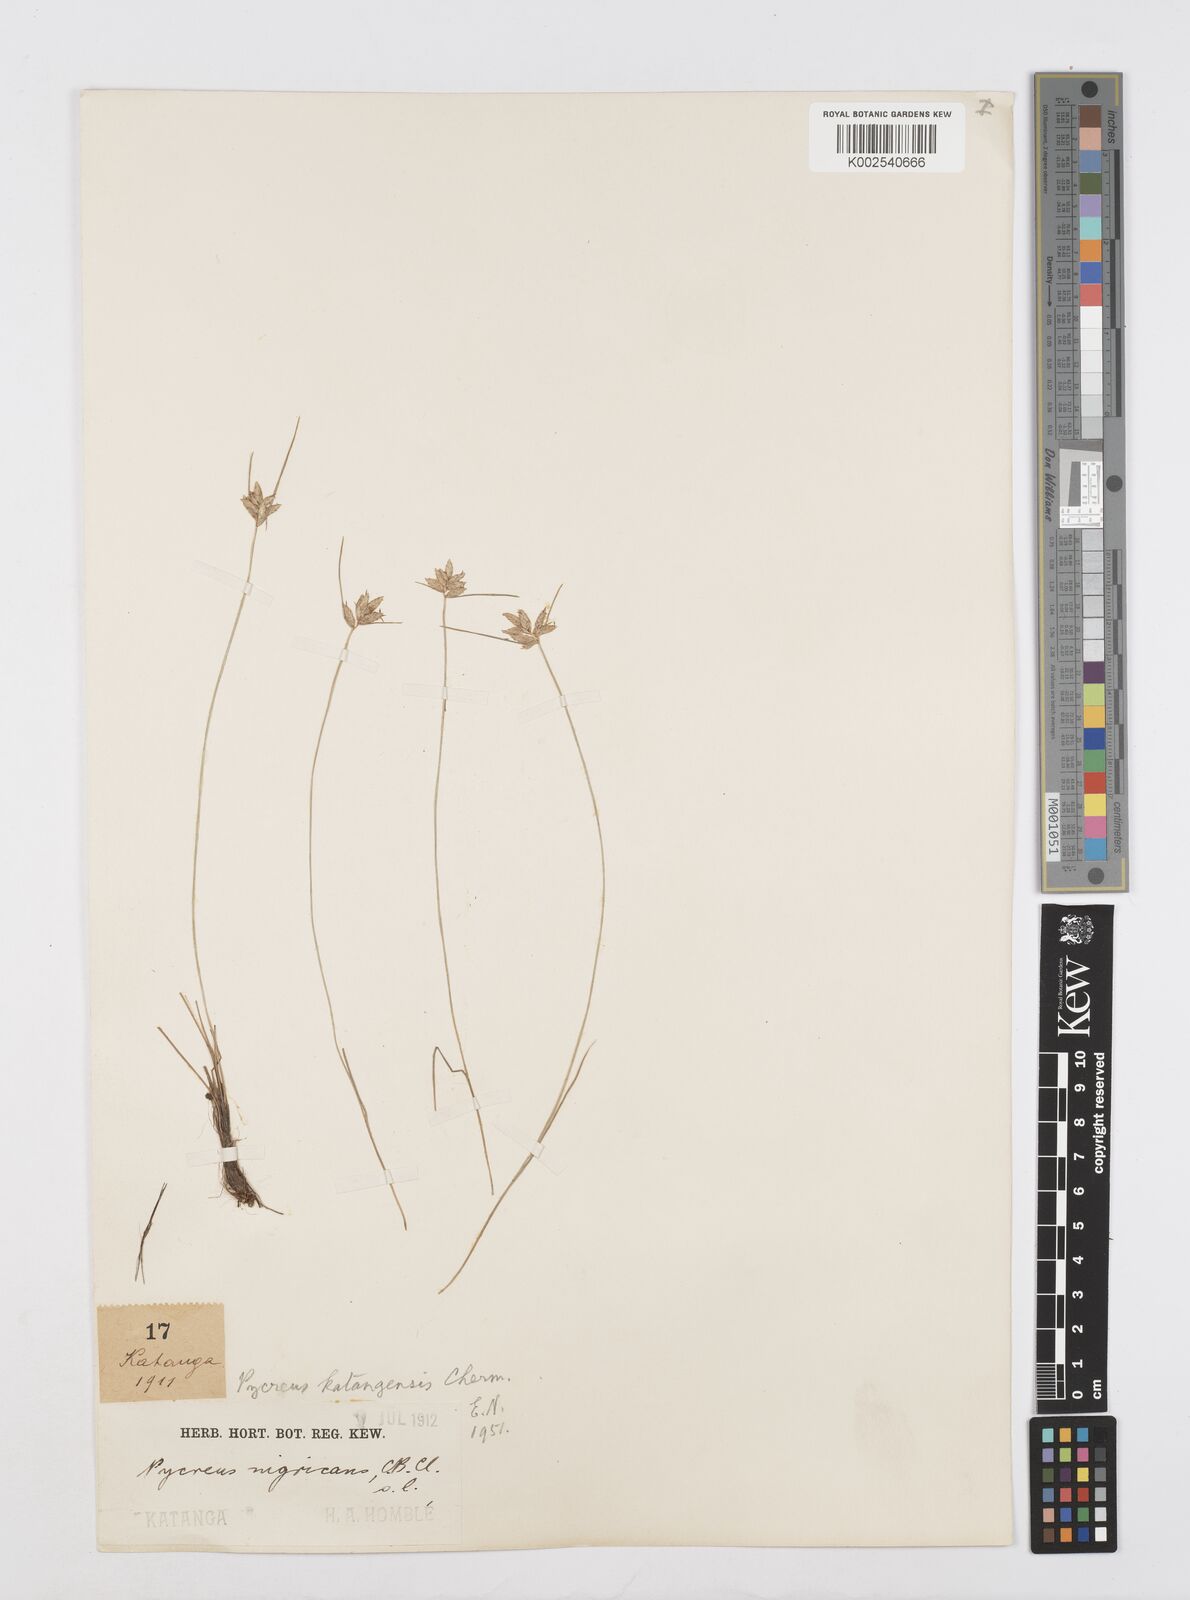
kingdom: Plantae
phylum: Tracheophyta
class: Liliopsida
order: Poales
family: Cyperaceae
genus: Cyperus
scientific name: Cyperus
